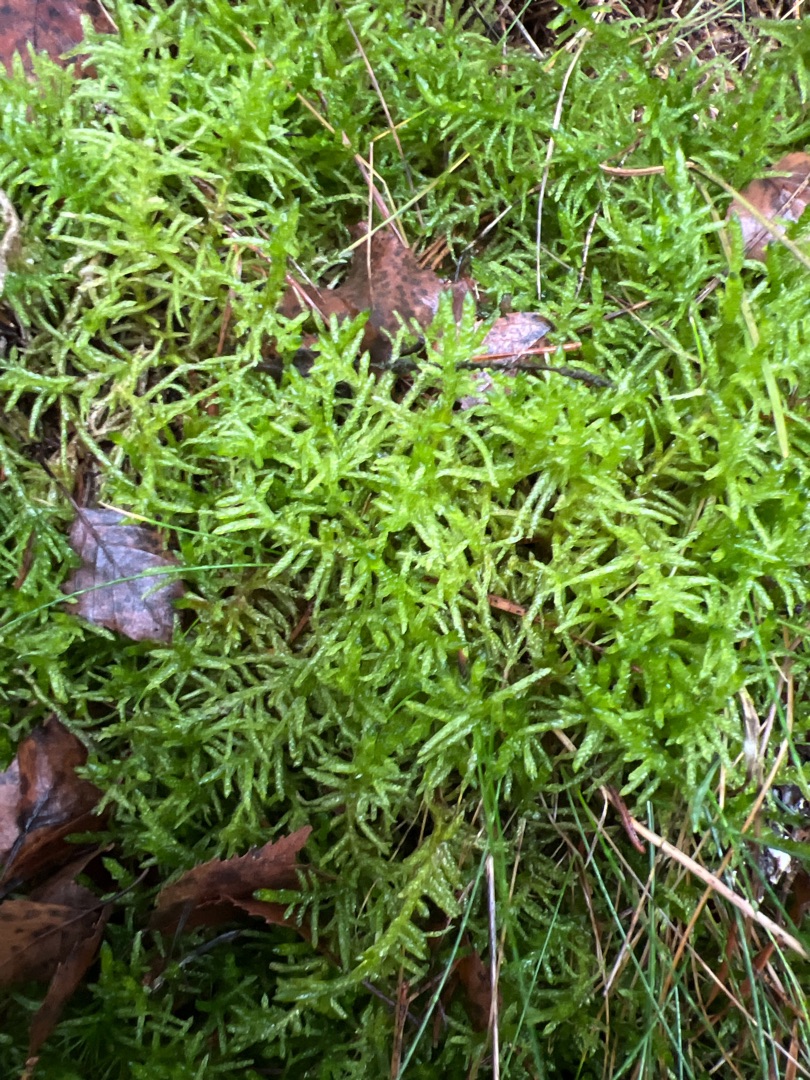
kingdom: Plantae
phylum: Bryophyta
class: Bryopsida
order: Hypnales
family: Brachytheciaceae
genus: Pseudoscleropodium
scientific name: Pseudoscleropodium purum
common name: Hulbladet fedtmos
